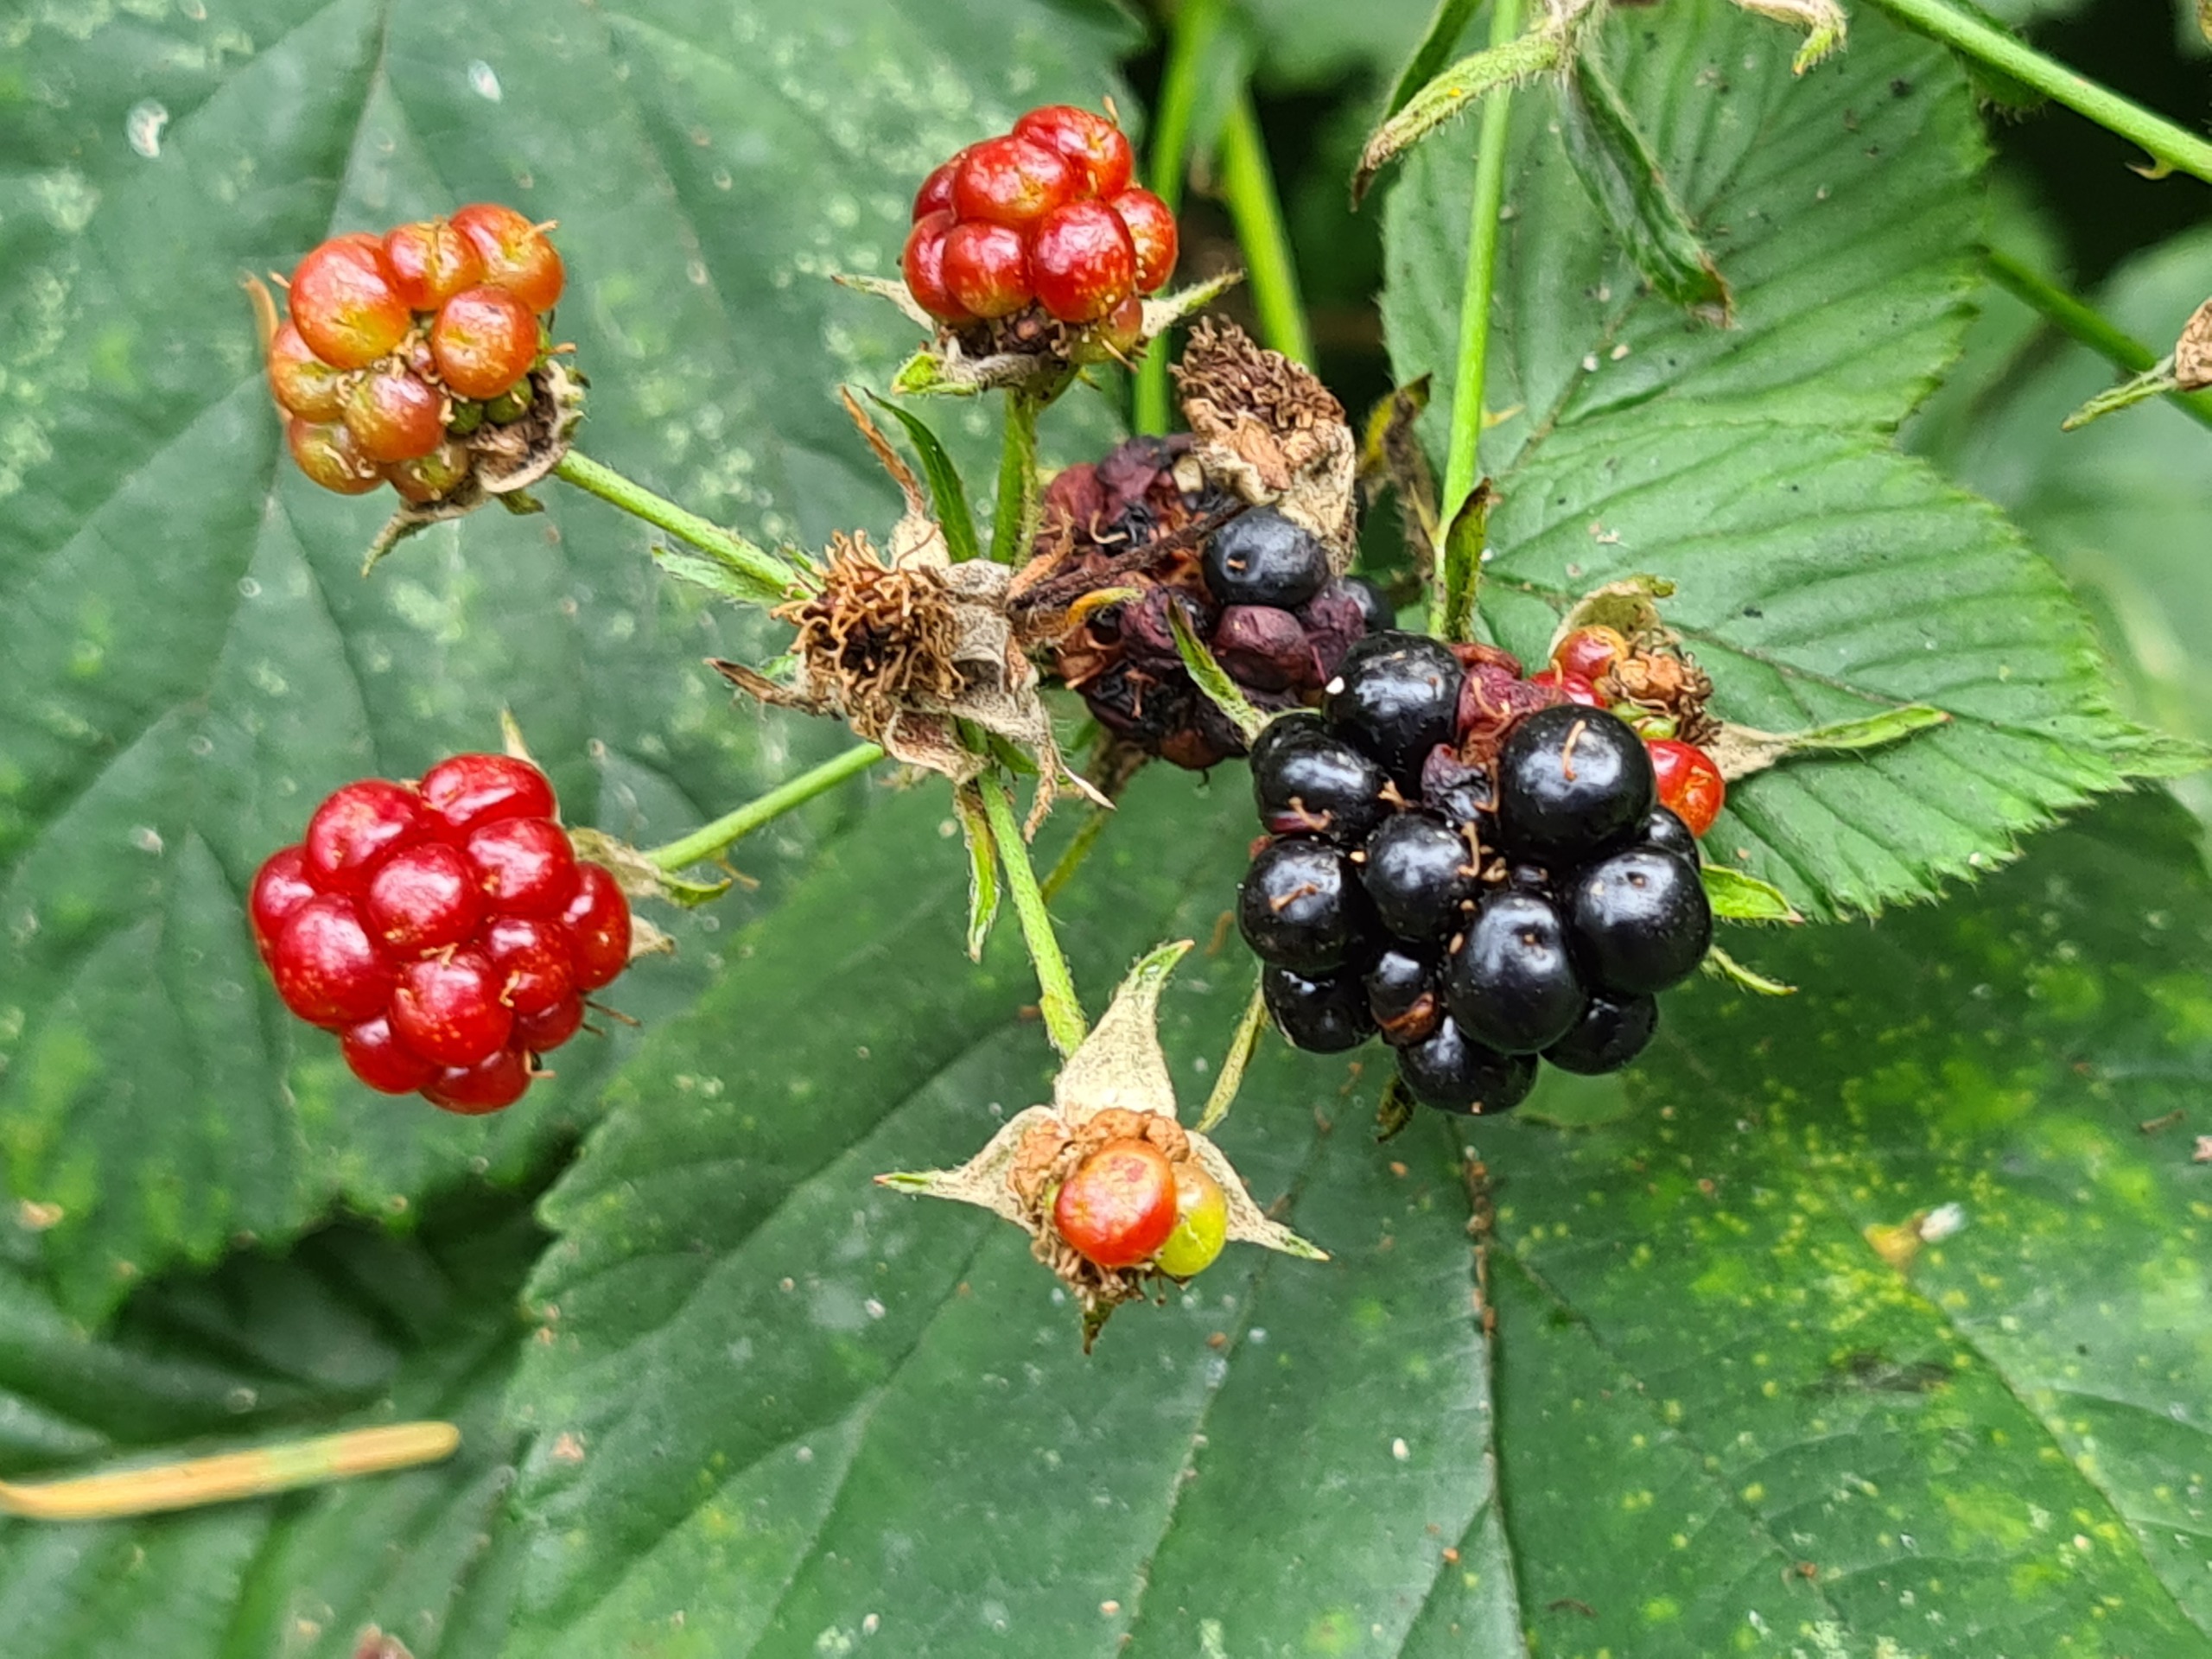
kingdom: Plantae
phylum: Tracheophyta
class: Magnoliopsida
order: Rosales
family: Rosaceae
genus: Rubus
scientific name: Rubus plicatus
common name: Almindelig brombær
